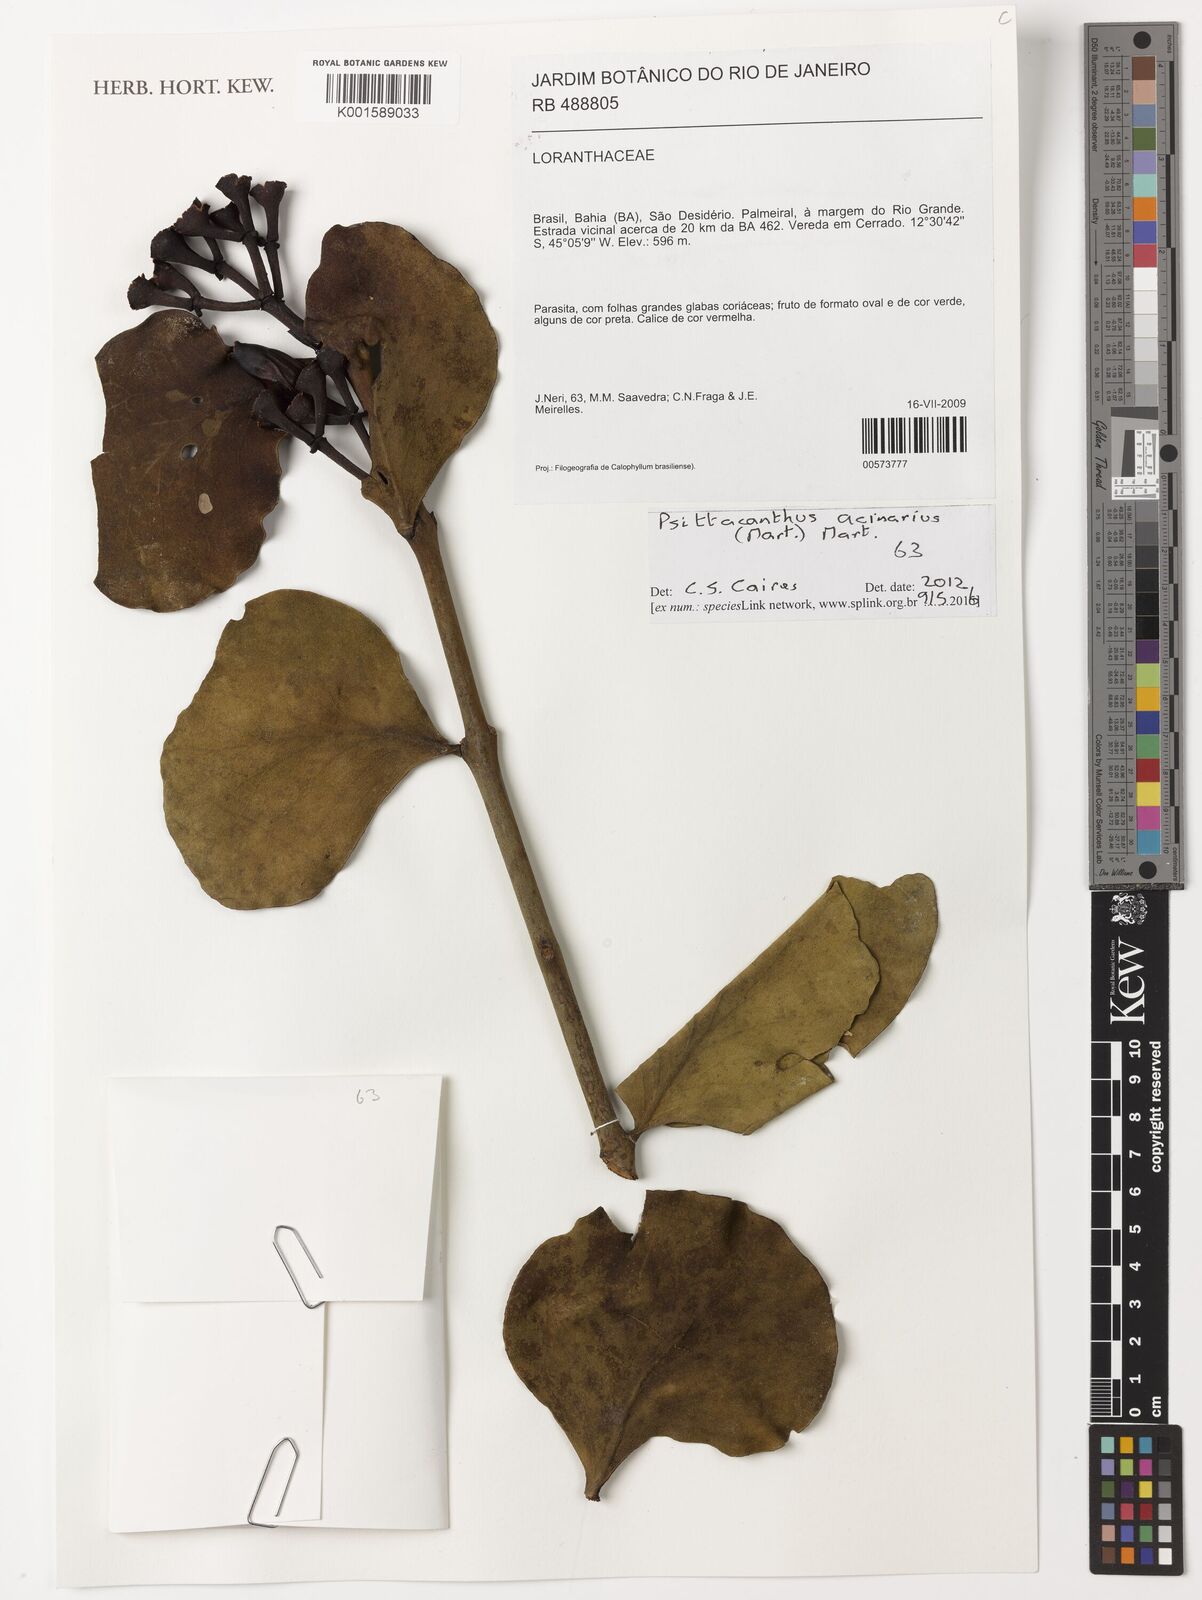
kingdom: Plantae
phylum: Tracheophyta
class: Magnoliopsida
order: Santalales
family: Loranthaceae
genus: Psittacanthus
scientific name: Psittacanthus acinarius
